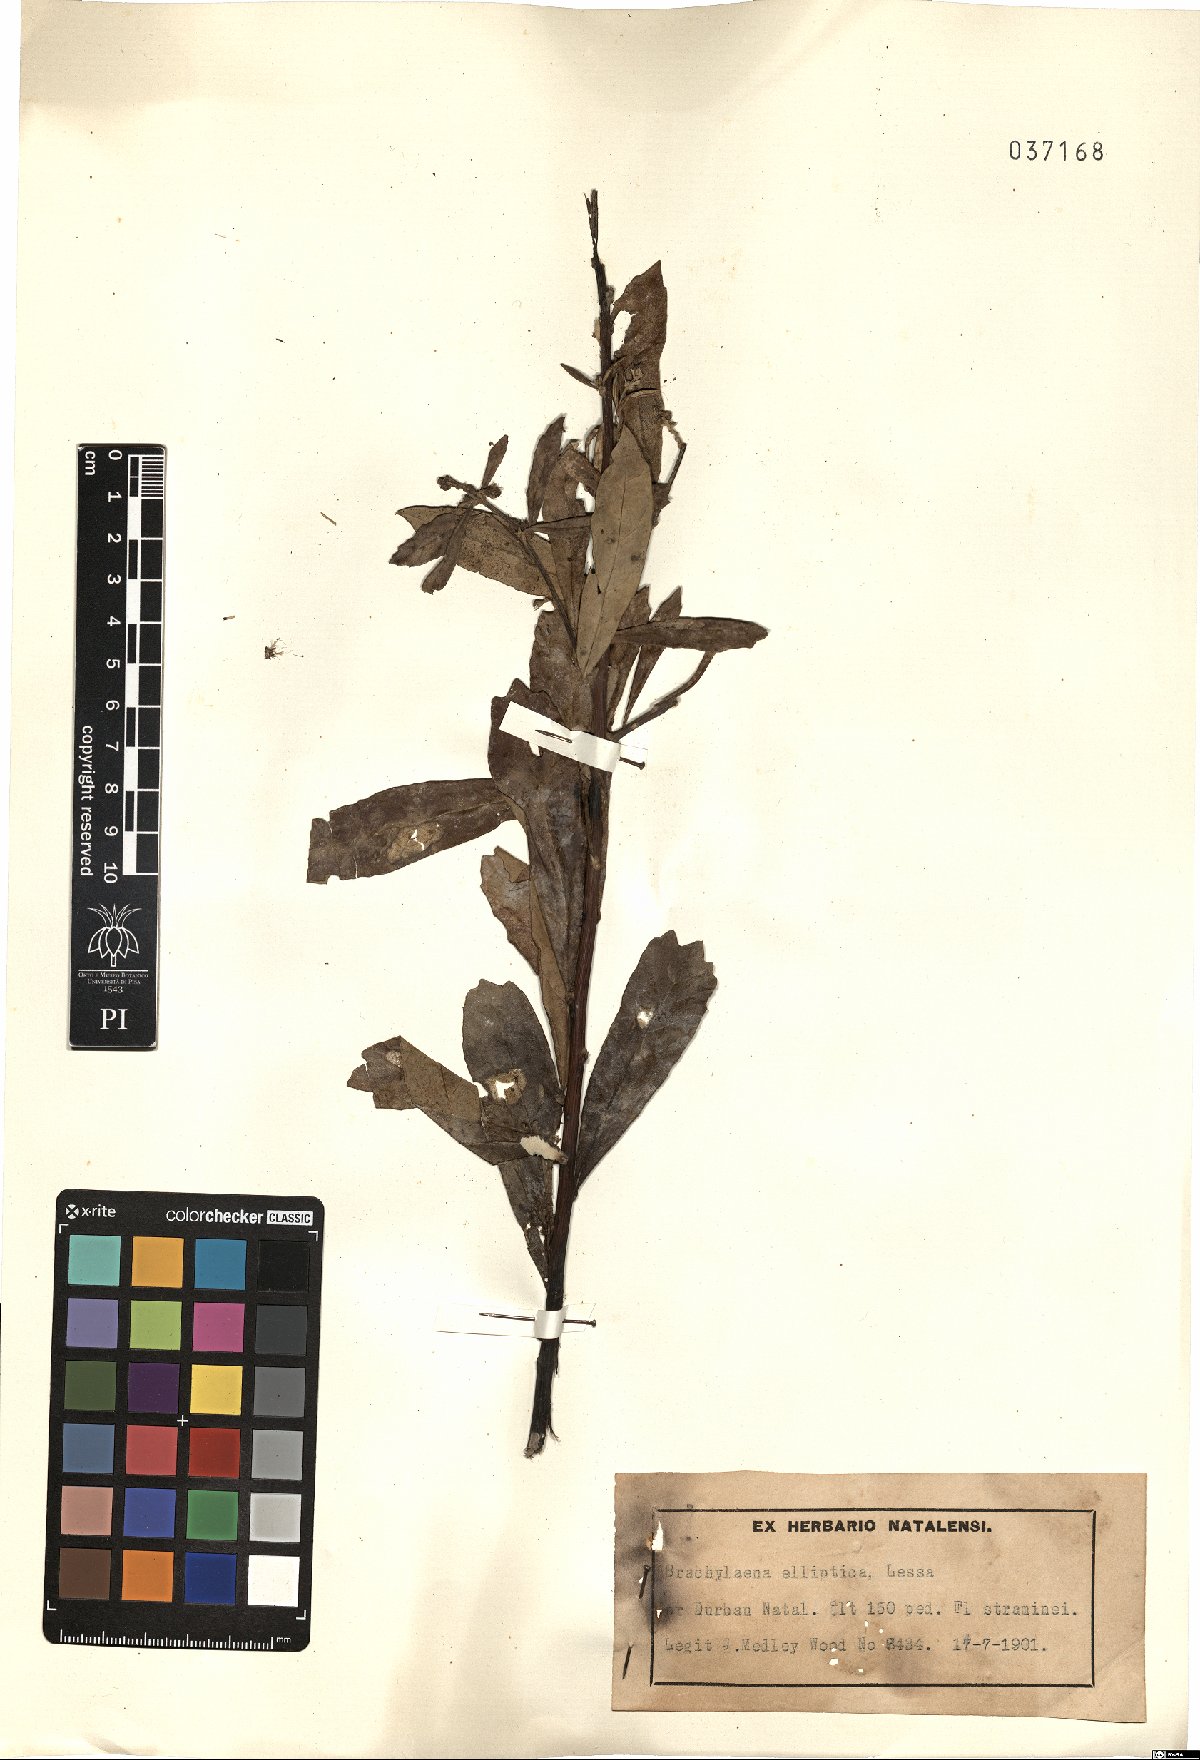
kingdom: Plantae
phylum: Tracheophyta
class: Magnoliopsida
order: Asterales
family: Asteraceae
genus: Brachylaena
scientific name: Brachylaena elliptica
